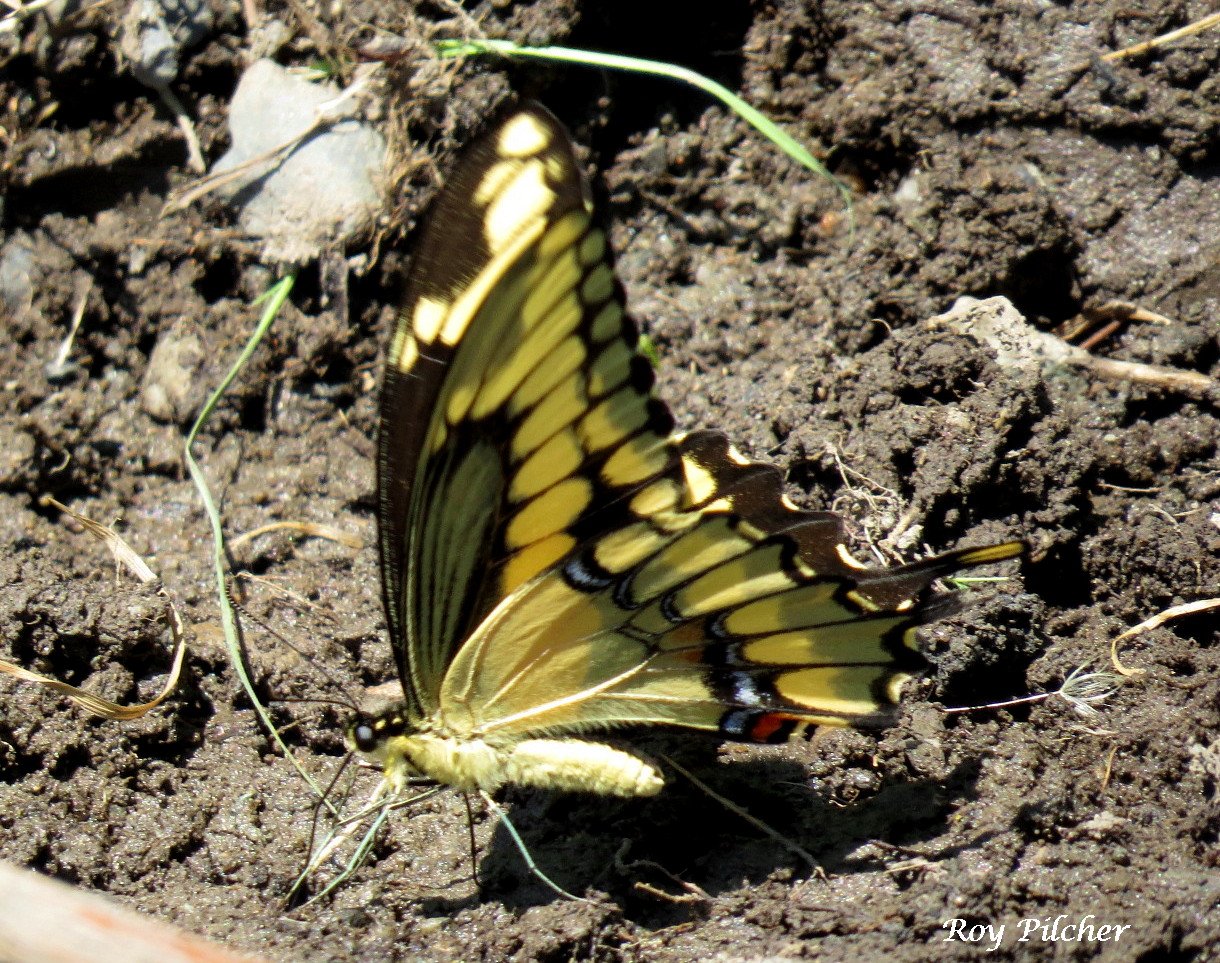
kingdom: Animalia
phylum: Arthropoda
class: Insecta
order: Lepidoptera
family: Papilionidae
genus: Papilio
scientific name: Papilio cresphontes
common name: Eastern Giant Swallowtail
